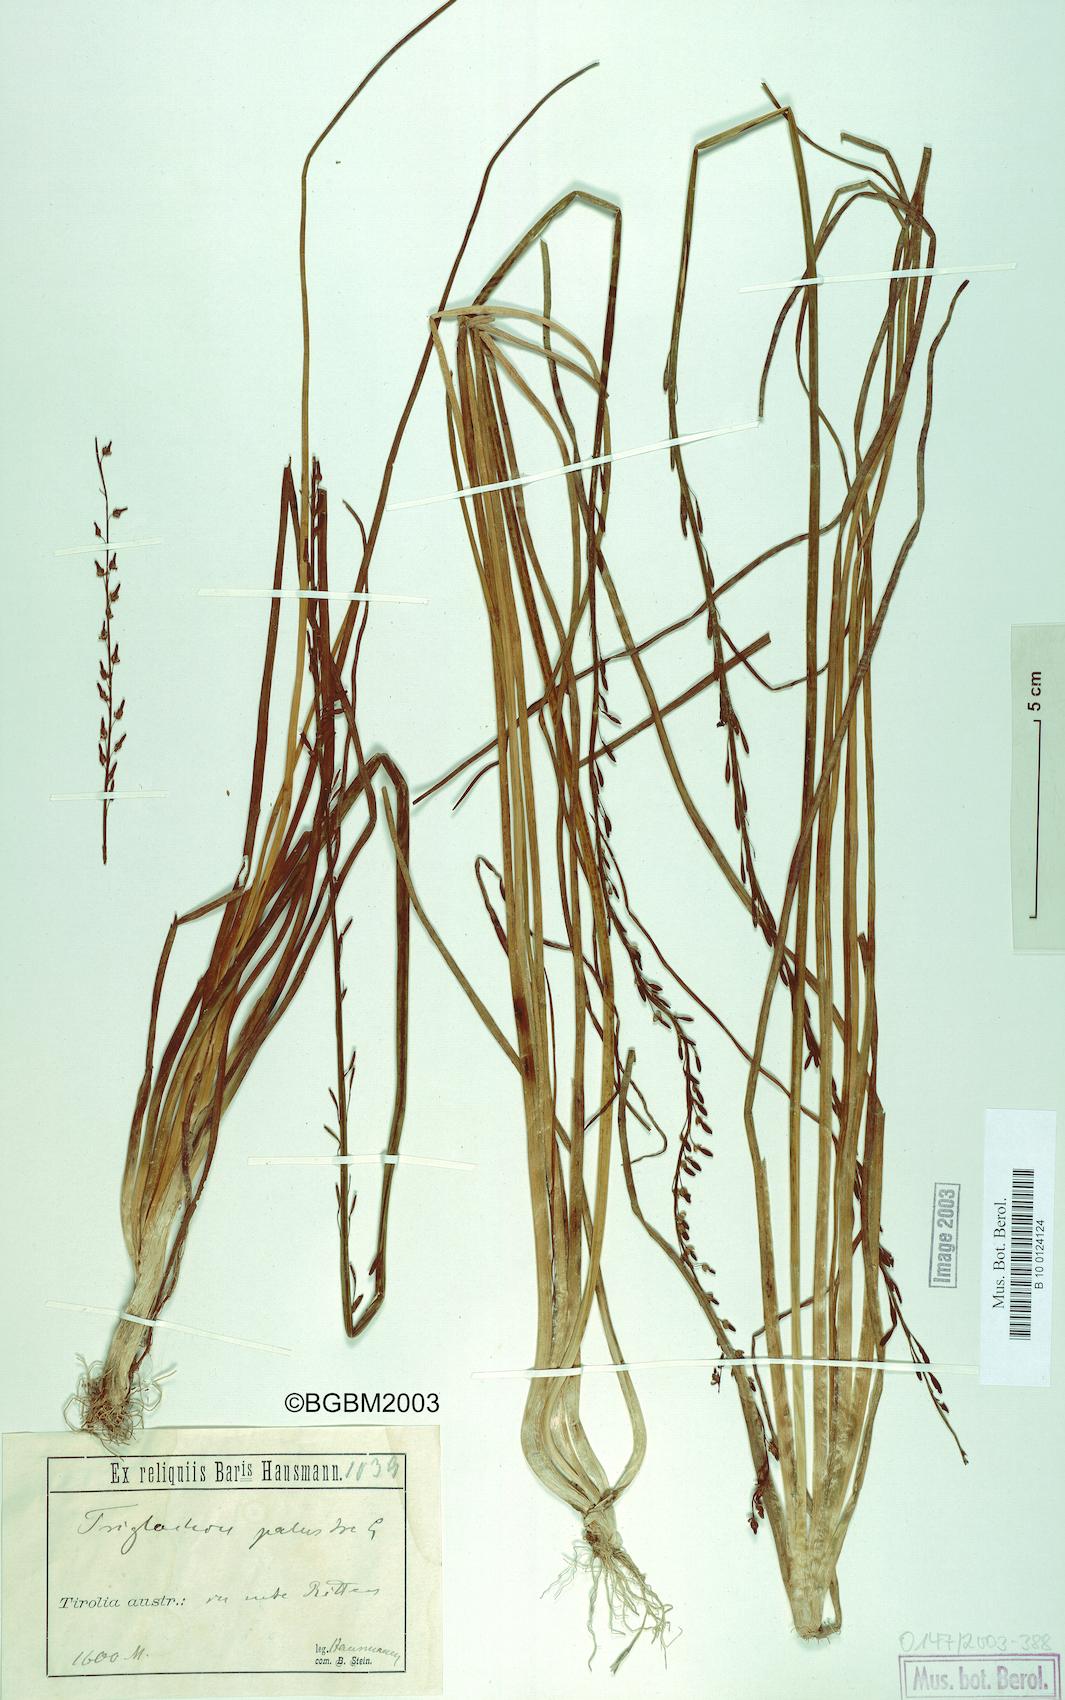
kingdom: Plantae
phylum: Tracheophyta
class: Liliopsida
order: Alismatales
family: Juncaginaceae
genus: Triglochin
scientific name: Triglochin palustris
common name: Marsh arrowgrass
